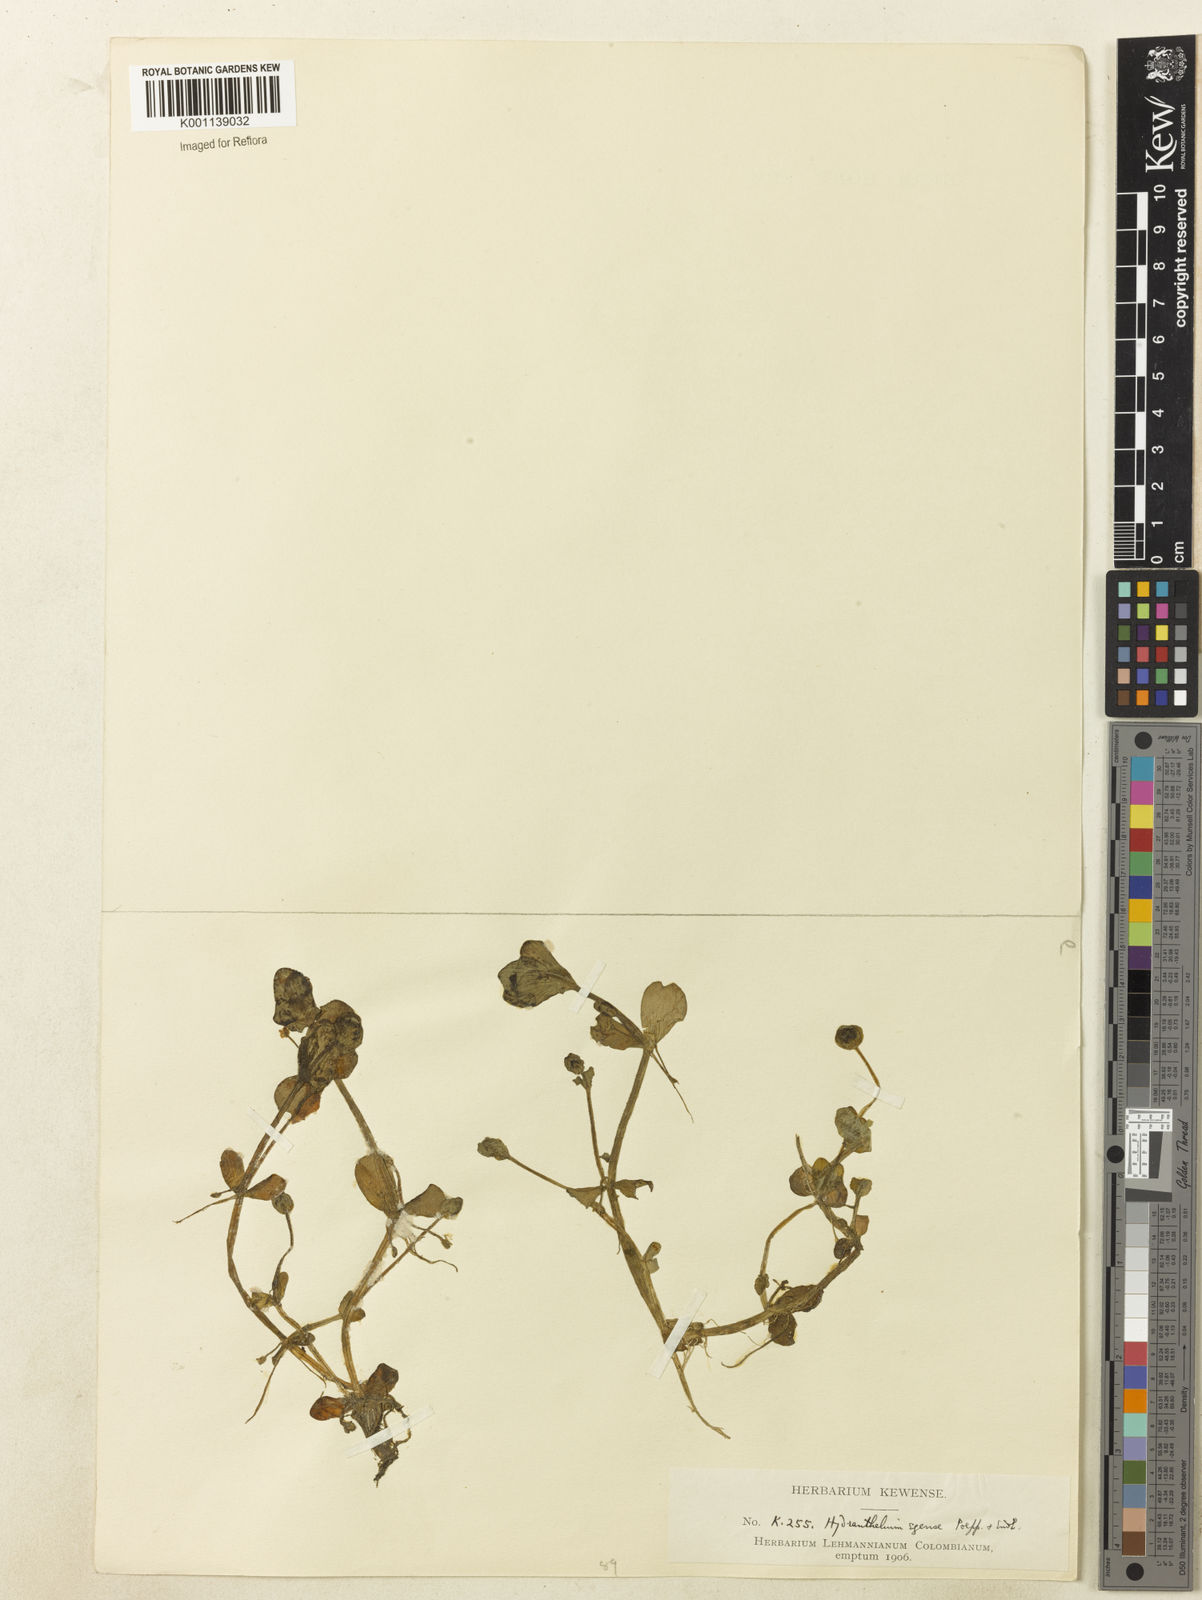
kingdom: Plantae
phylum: Tracheophyta
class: Magnoliopsida
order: Lamiales
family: Plantaginaceae
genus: Bacopa
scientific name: Bacopa egensis
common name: Brazilian waterhyssop
